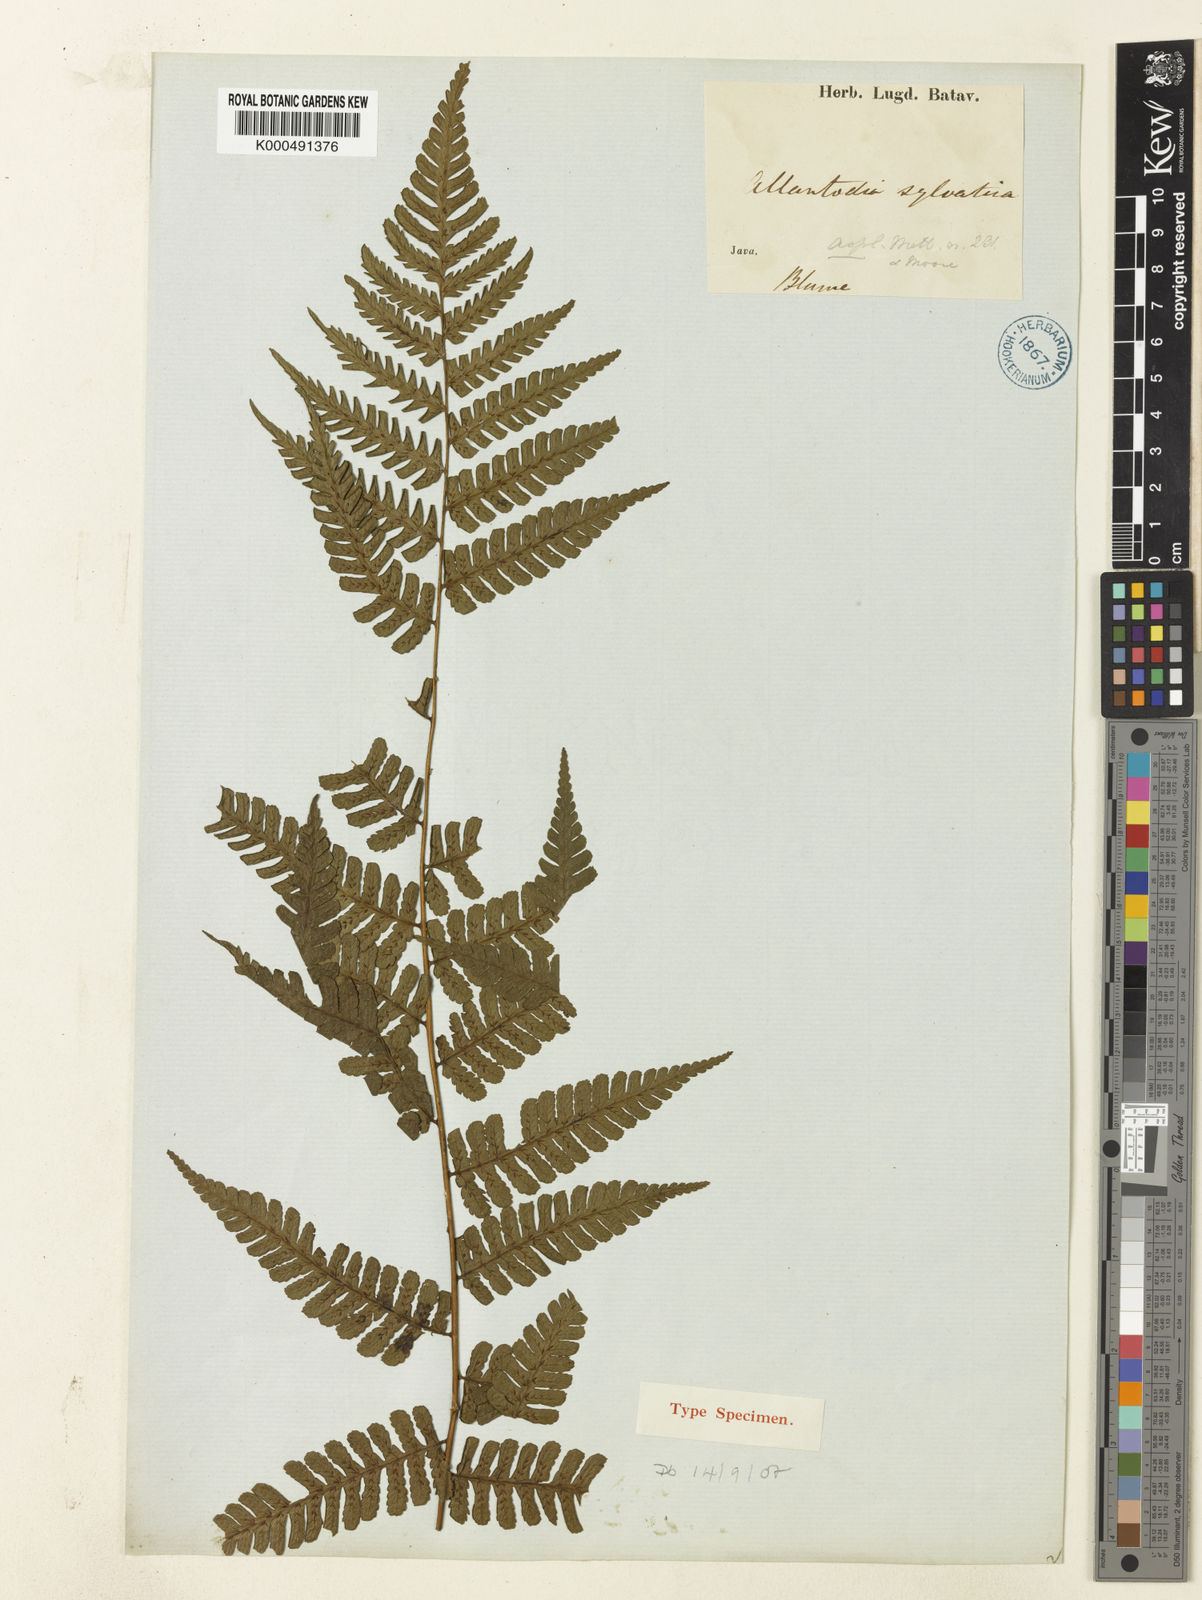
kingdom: Plantae
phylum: Tracheophyta
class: Polypodiopsida
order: Polypodiales
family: Athyriaceae
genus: Diplazium
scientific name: Diplazium sylvaticum
